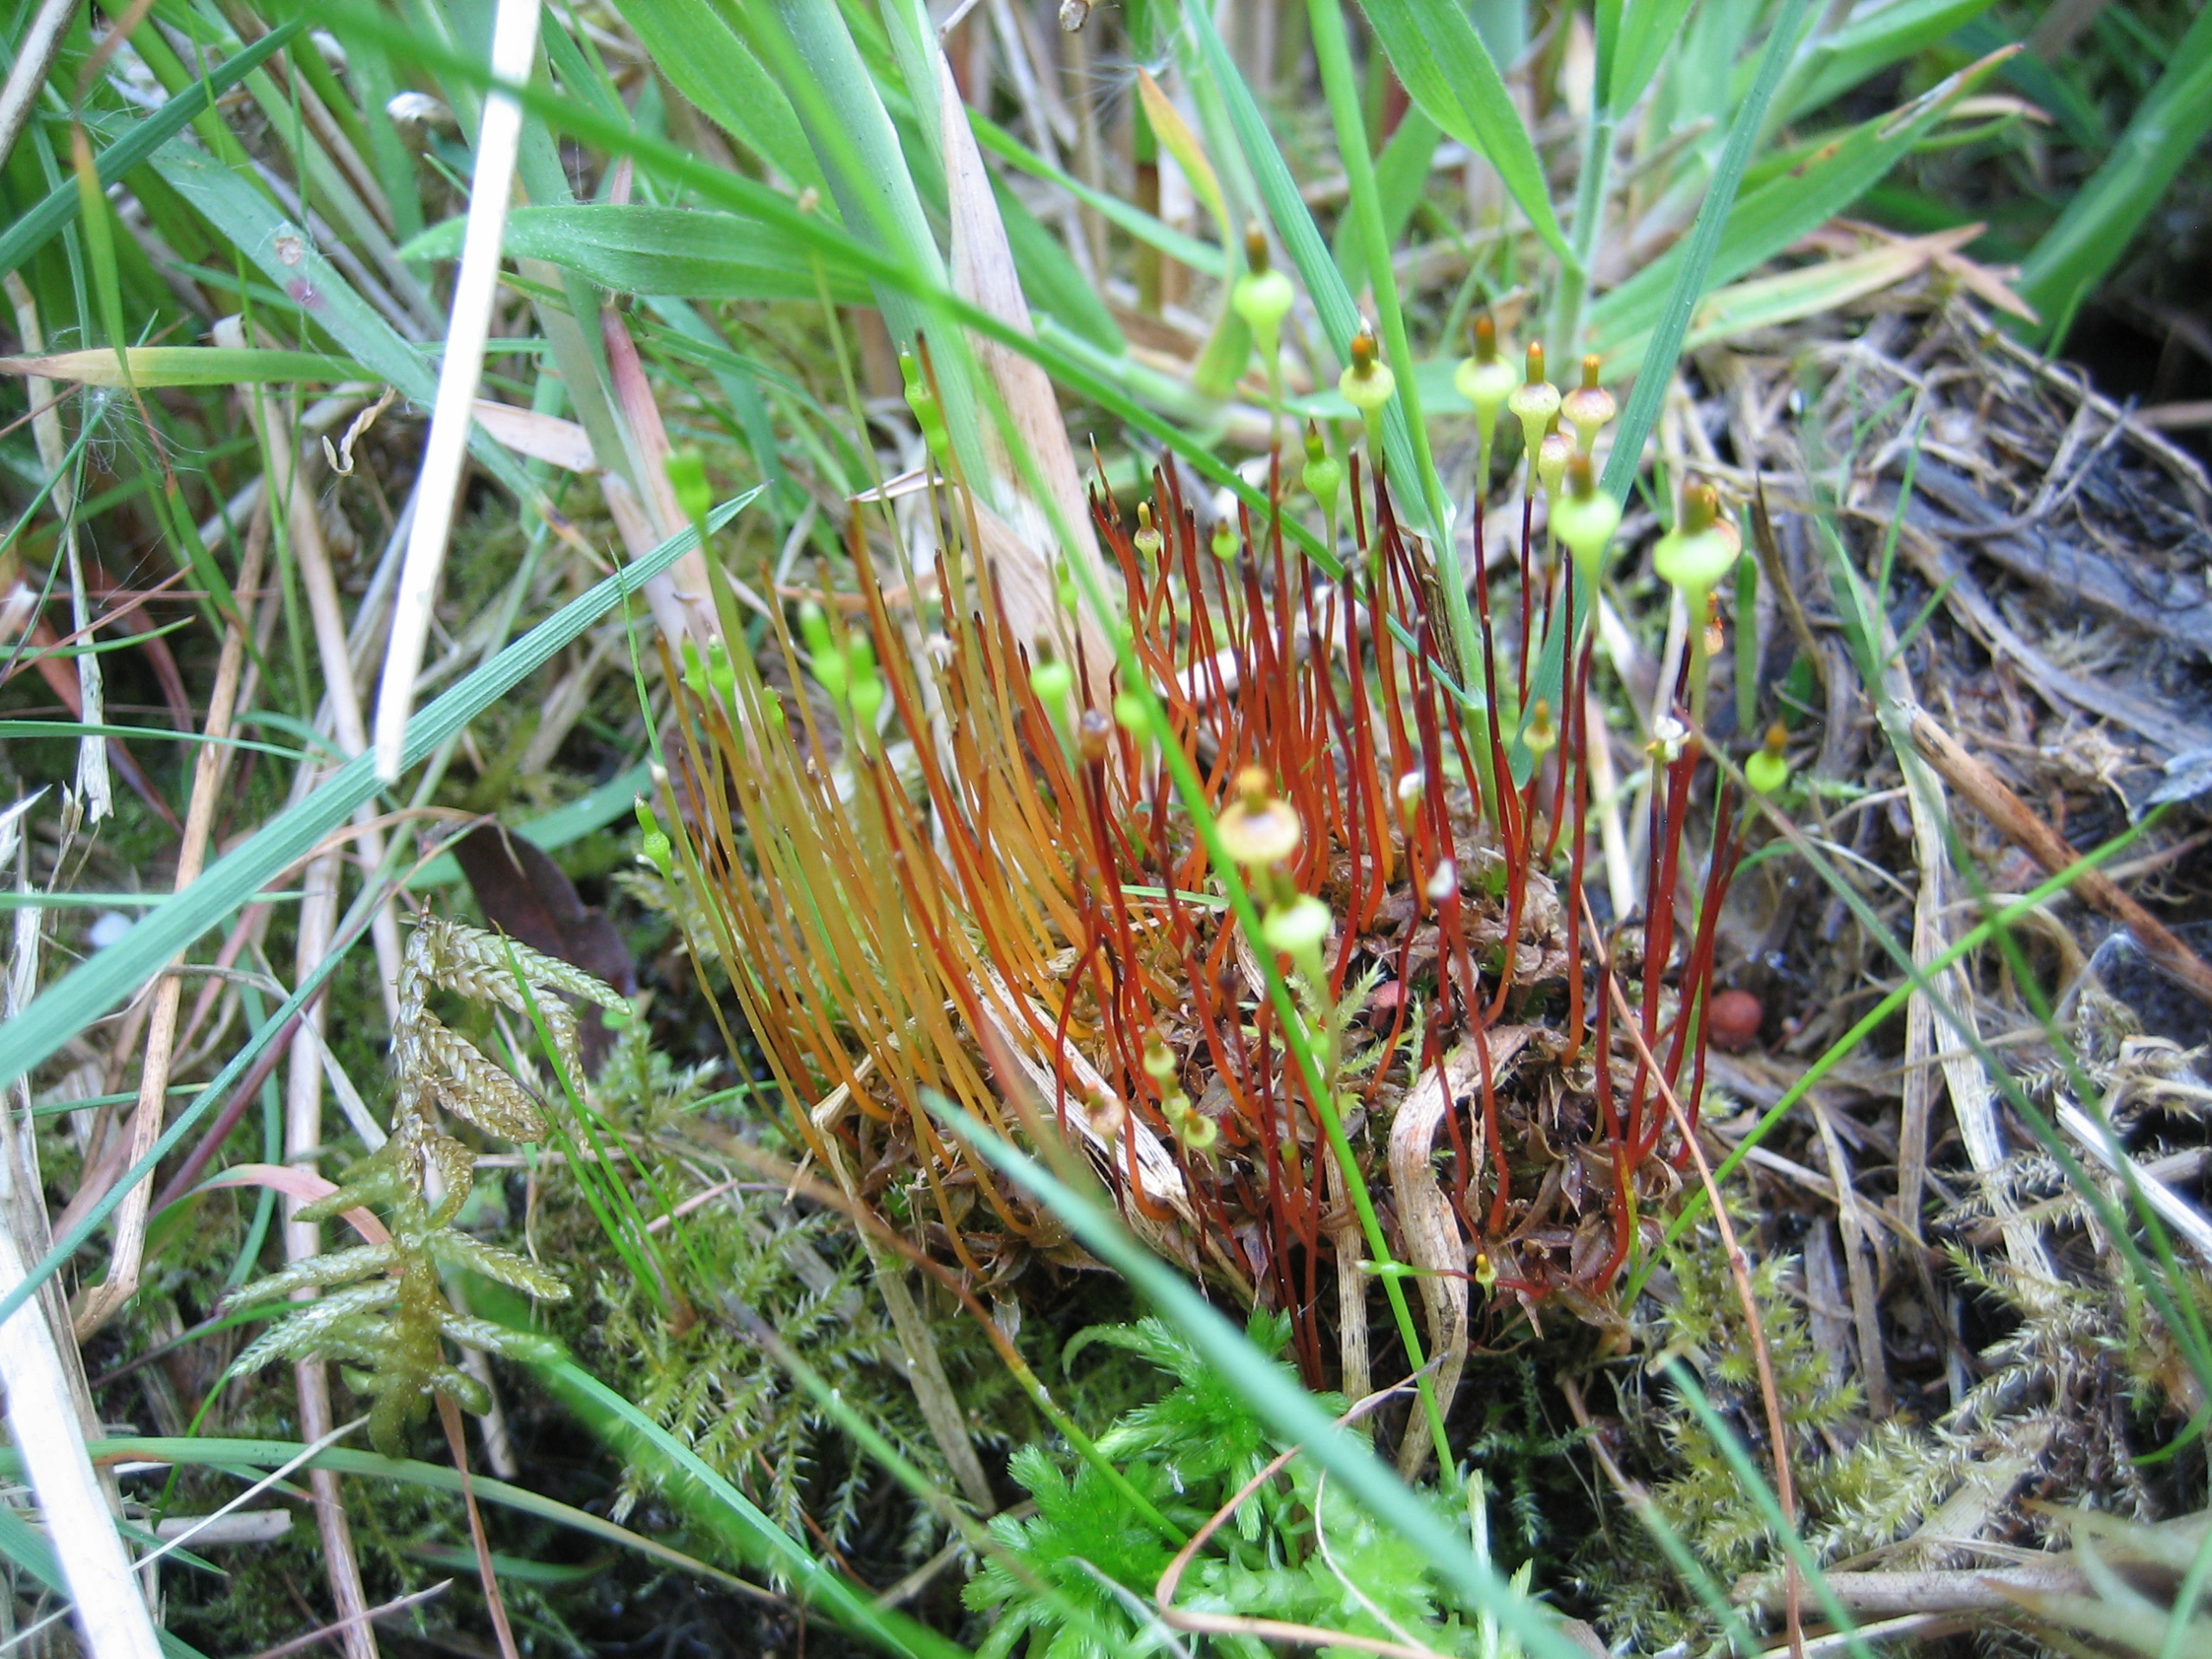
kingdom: Plantae
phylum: Bryophyta
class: Bryopsida
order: Splachnales
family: Splachnaceae
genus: Splachnum
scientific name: Splachnum ampullaceum
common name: Pære-møgmos
